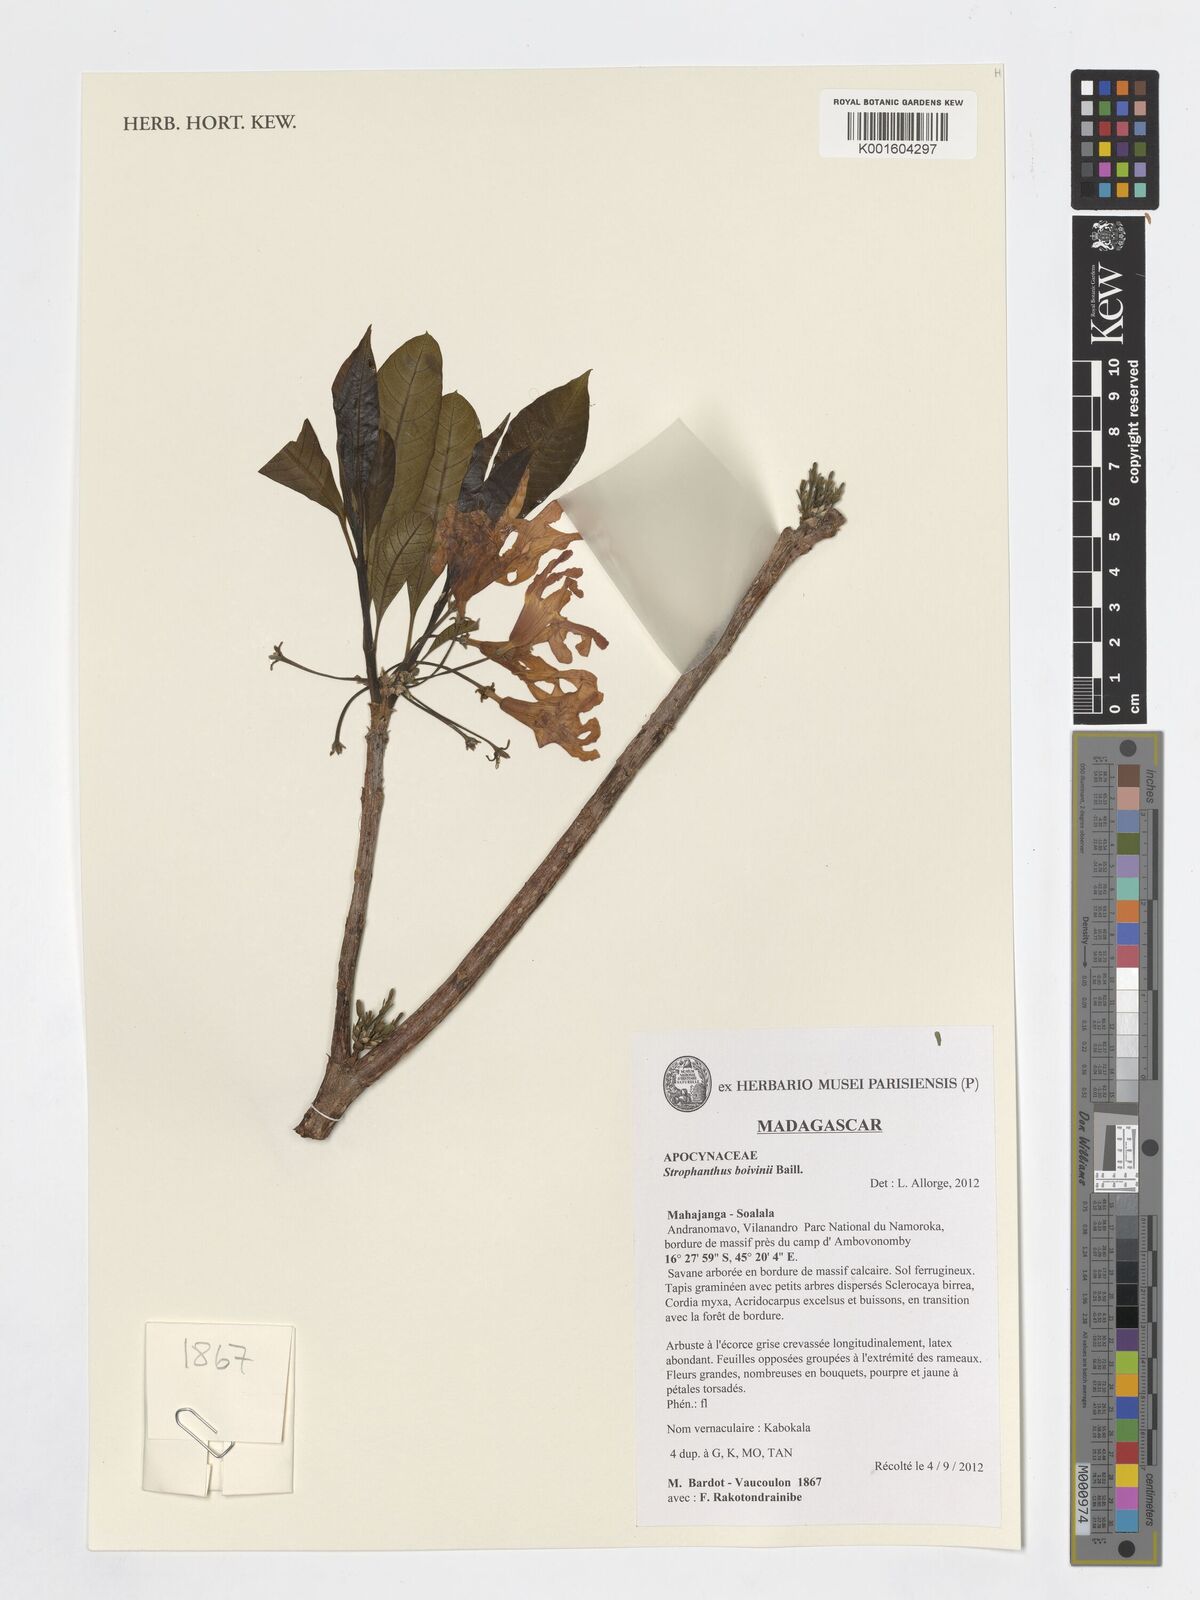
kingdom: Plantae
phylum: Tracheophyta
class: Magnoliopsida
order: Gentianales
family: Apocynaceae
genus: Strophanthus
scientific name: Strophanthus boivinii
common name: Wood-shaving-flower
